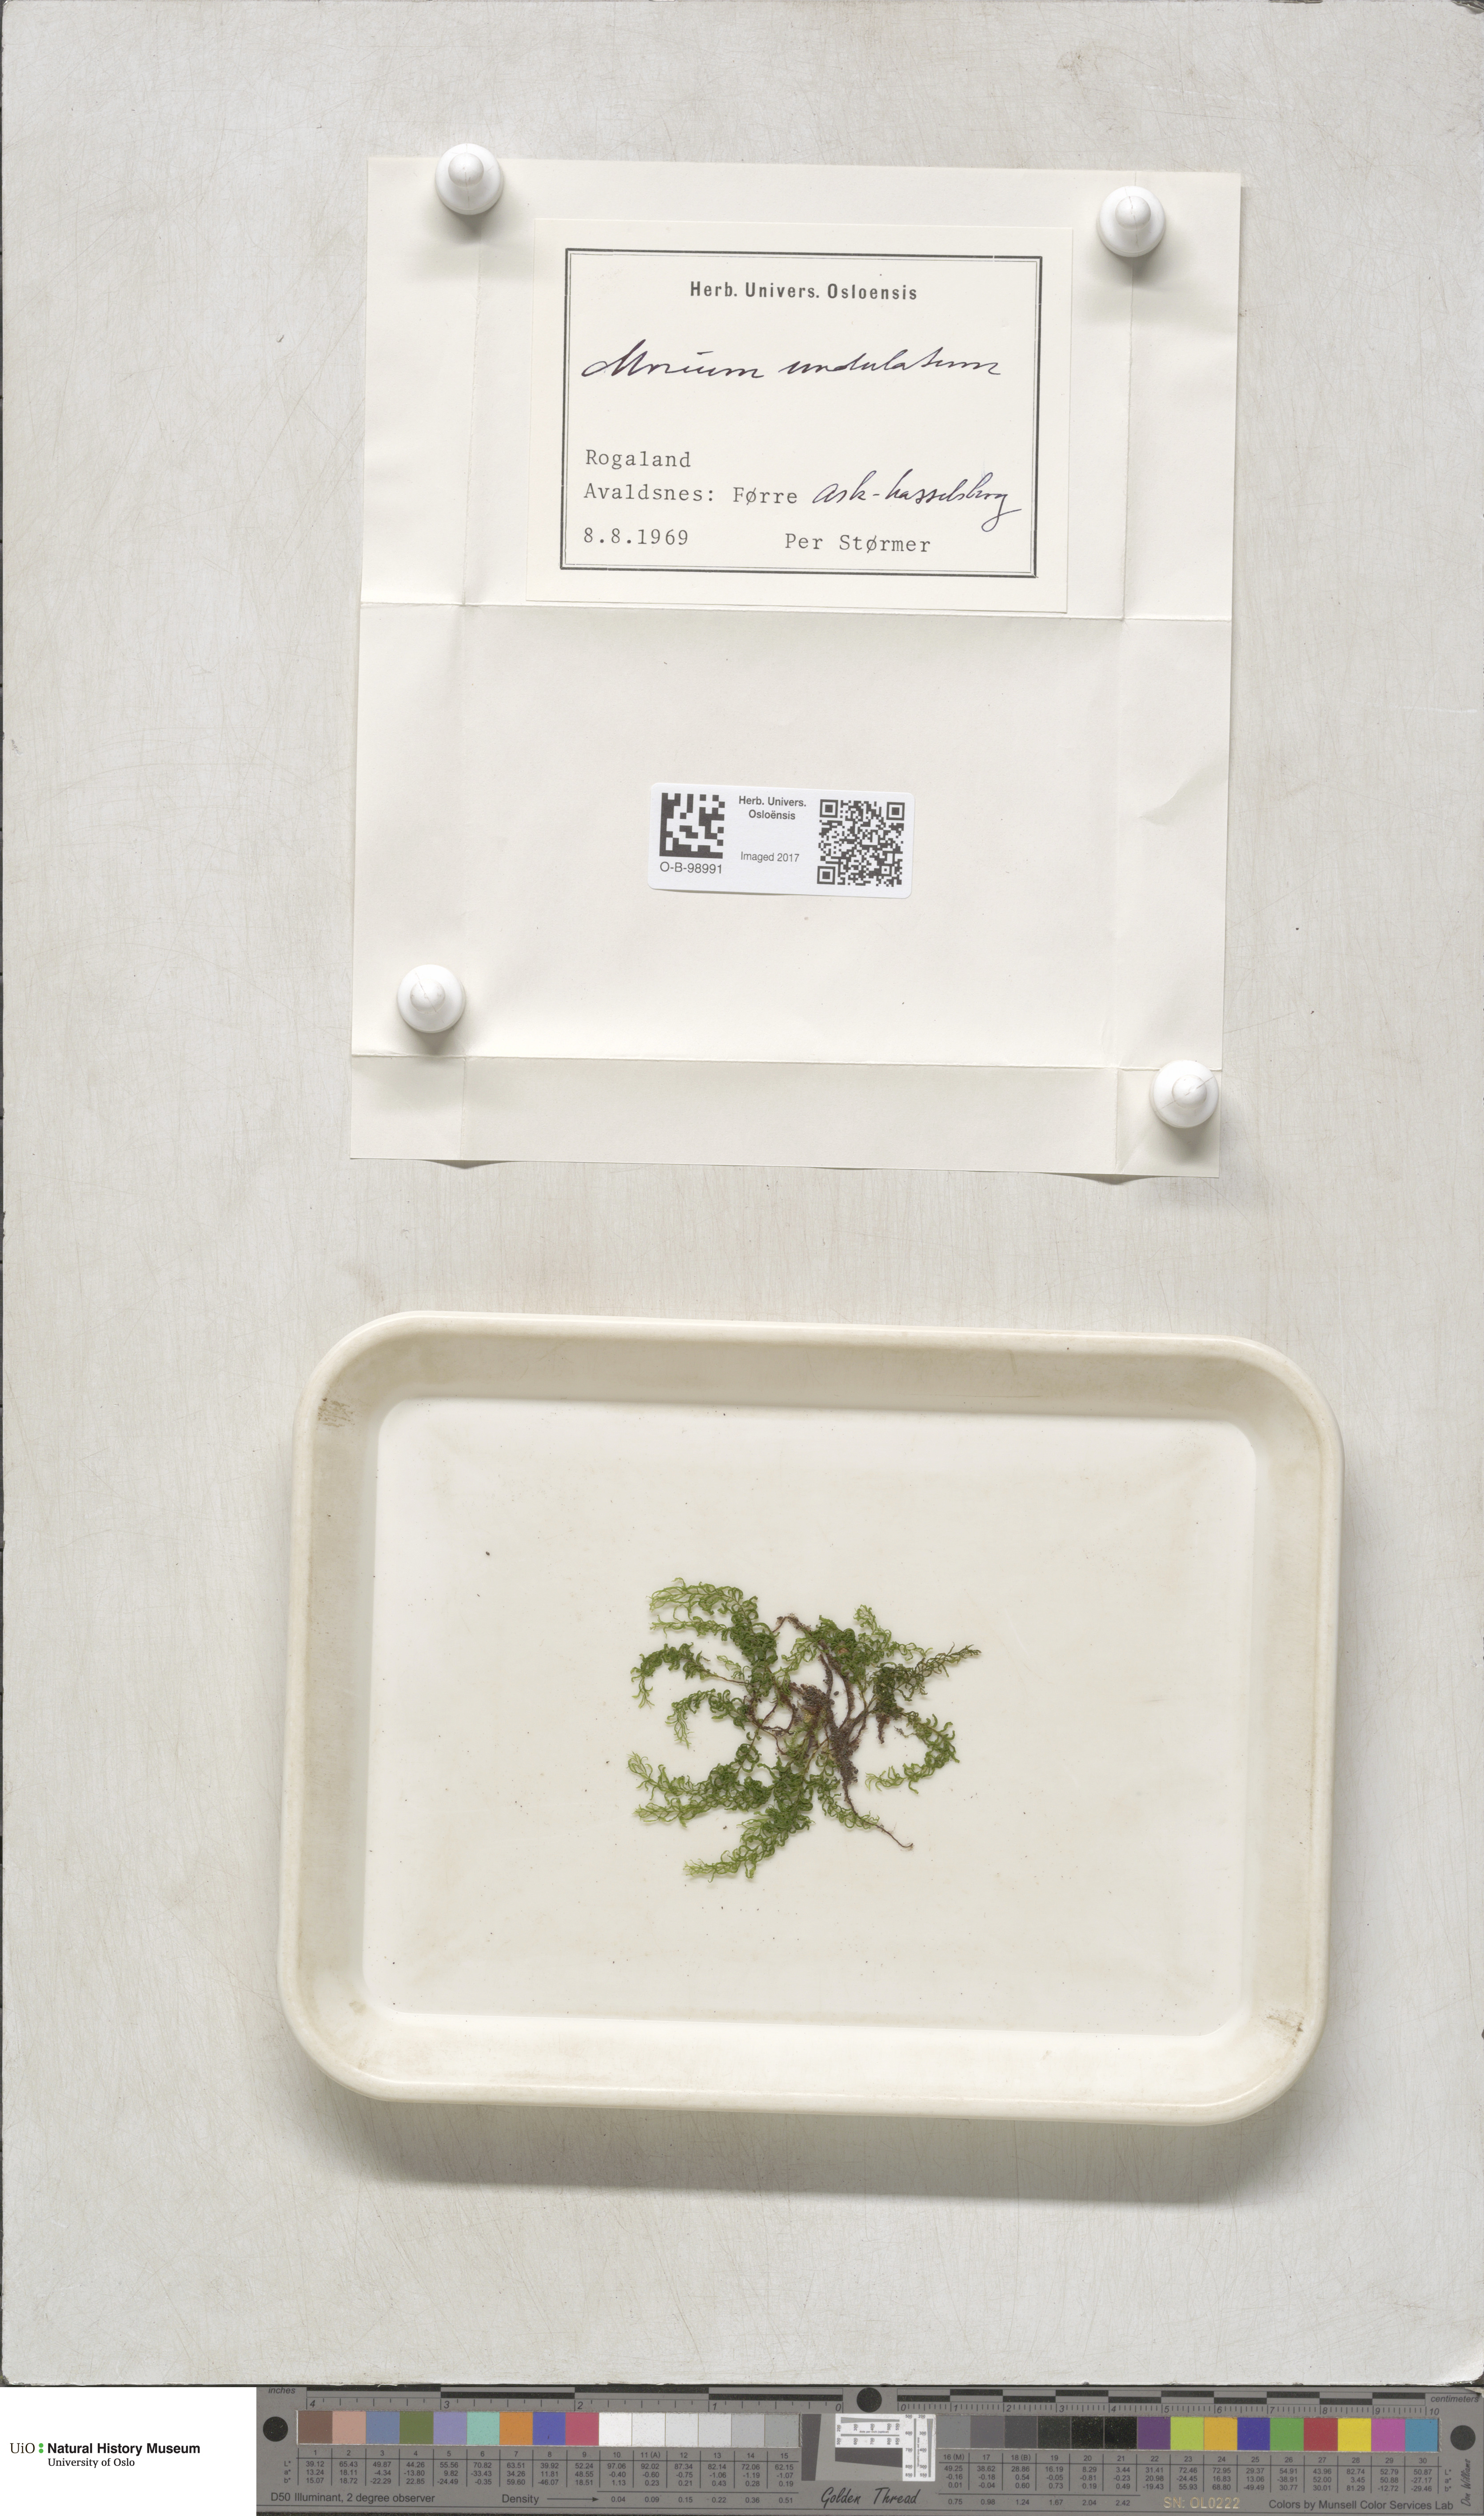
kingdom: Plantae
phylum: Bryophyta
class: Bryopsida
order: Bryales
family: Mniaceae
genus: Plagiomnium
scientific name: Plagiomnium undulatum
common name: Hart's-tongue thyme-moss
